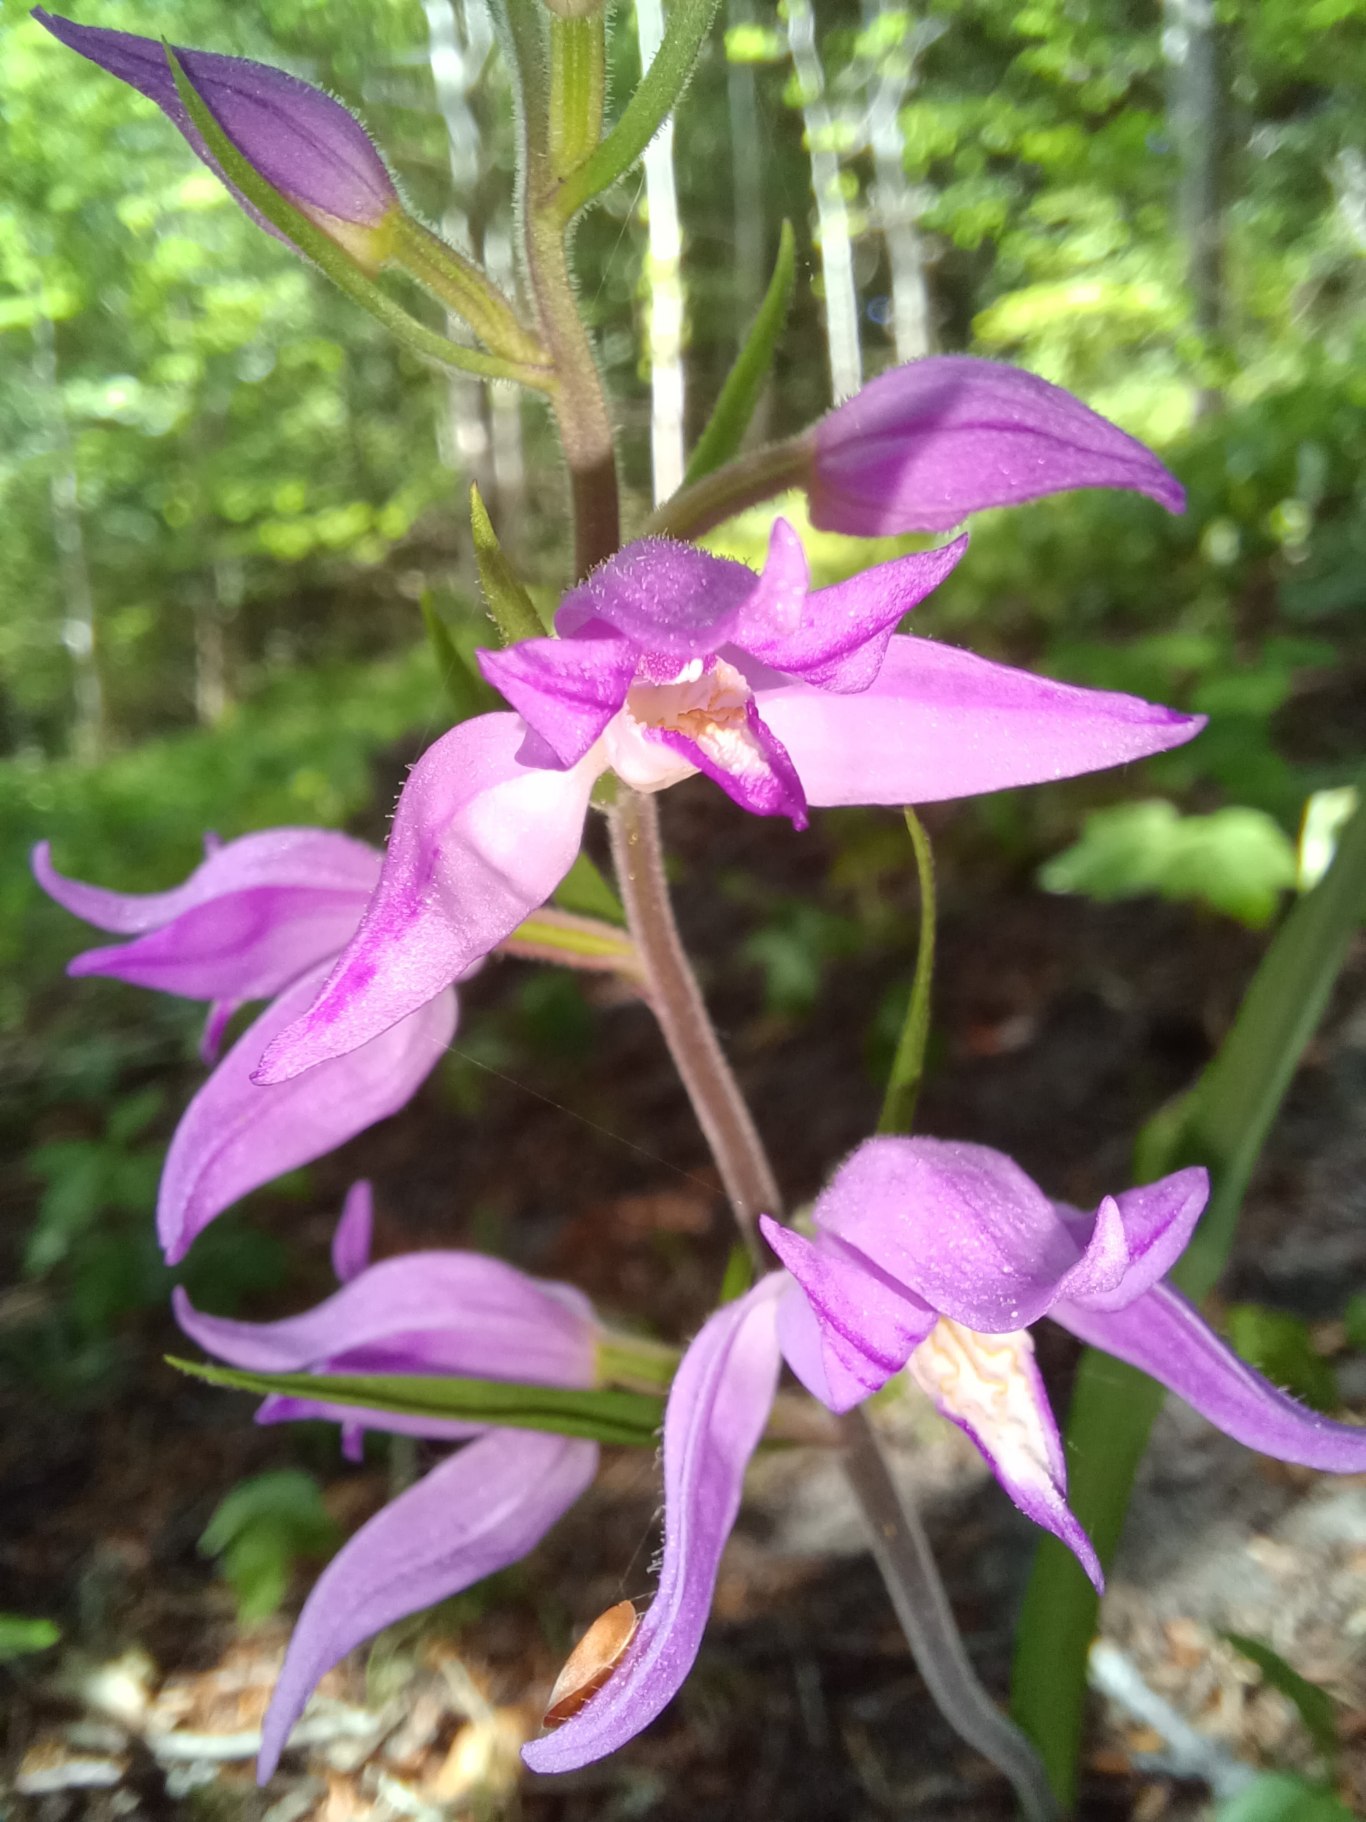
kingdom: Plantae
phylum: Tracheophyta
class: Liliopsida
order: Asparagales
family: Orchidaceae
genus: Cephalanthera
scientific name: Cephalanthera rubra
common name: Rød skovlilje
